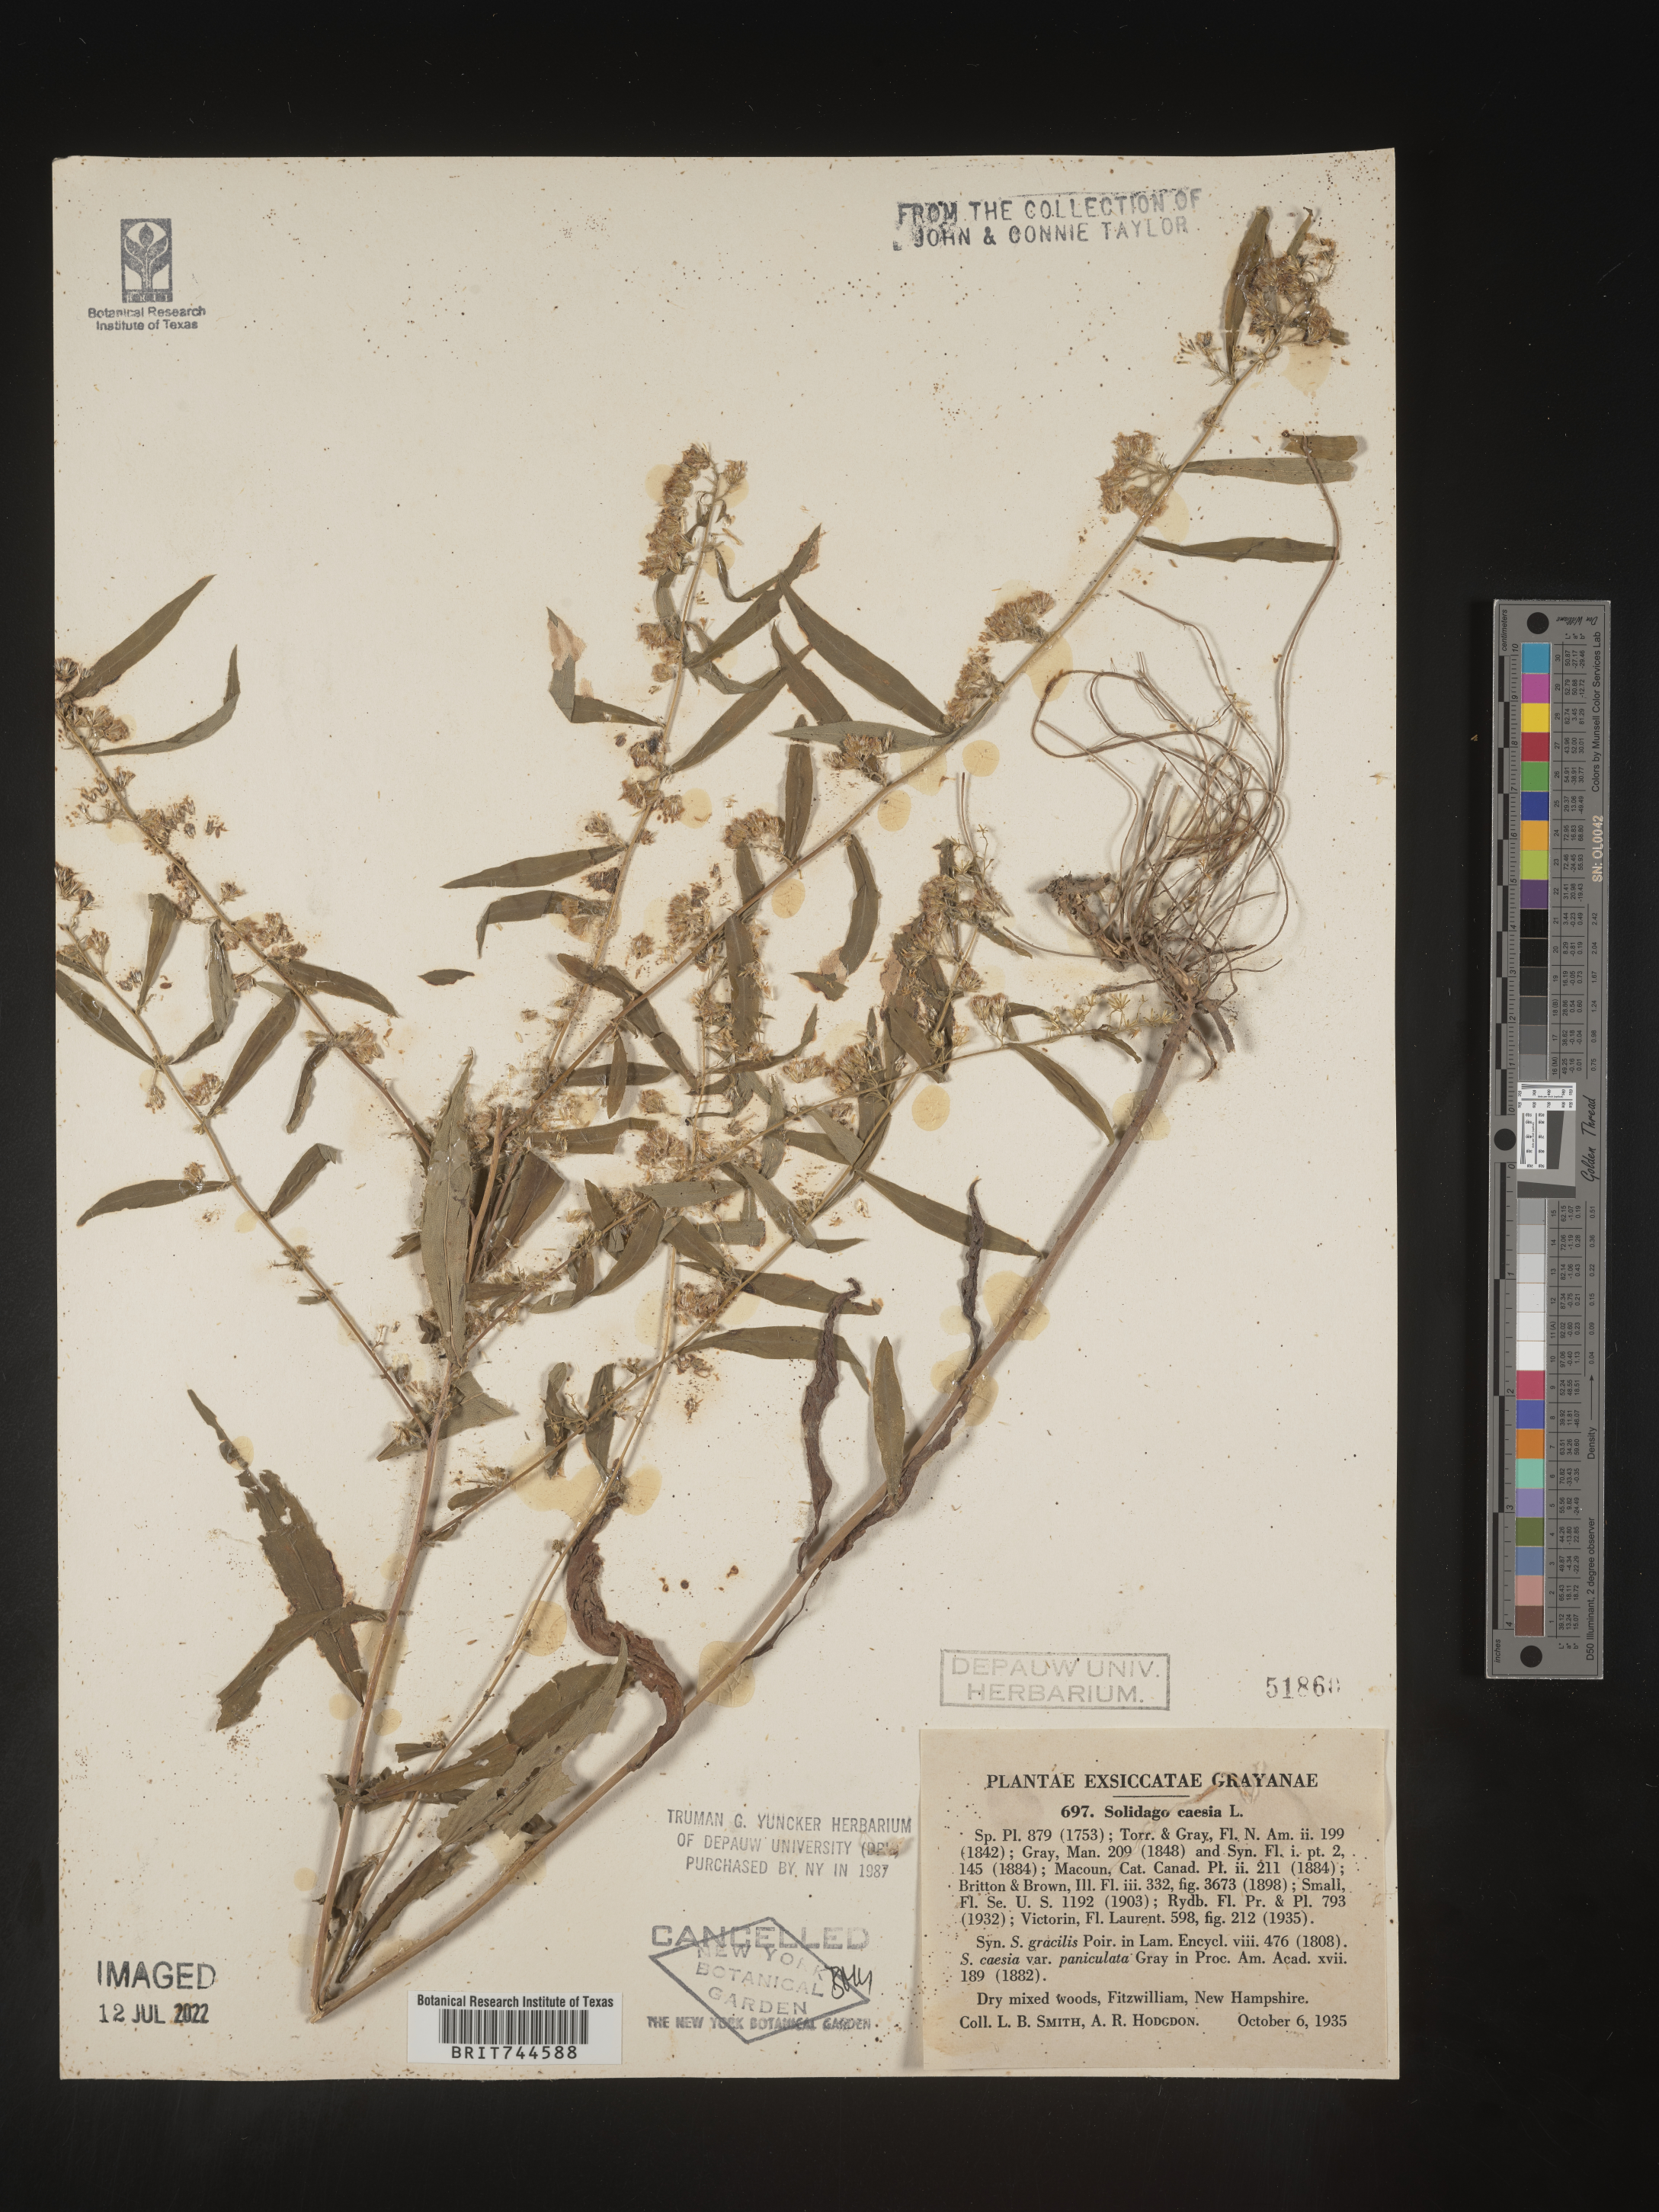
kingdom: Plantae
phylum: Tracheophyta
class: Magnoliopsida
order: Asterales
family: Asteraceae
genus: Solidago
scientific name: Solidago caesia
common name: Woodland goldenrod
